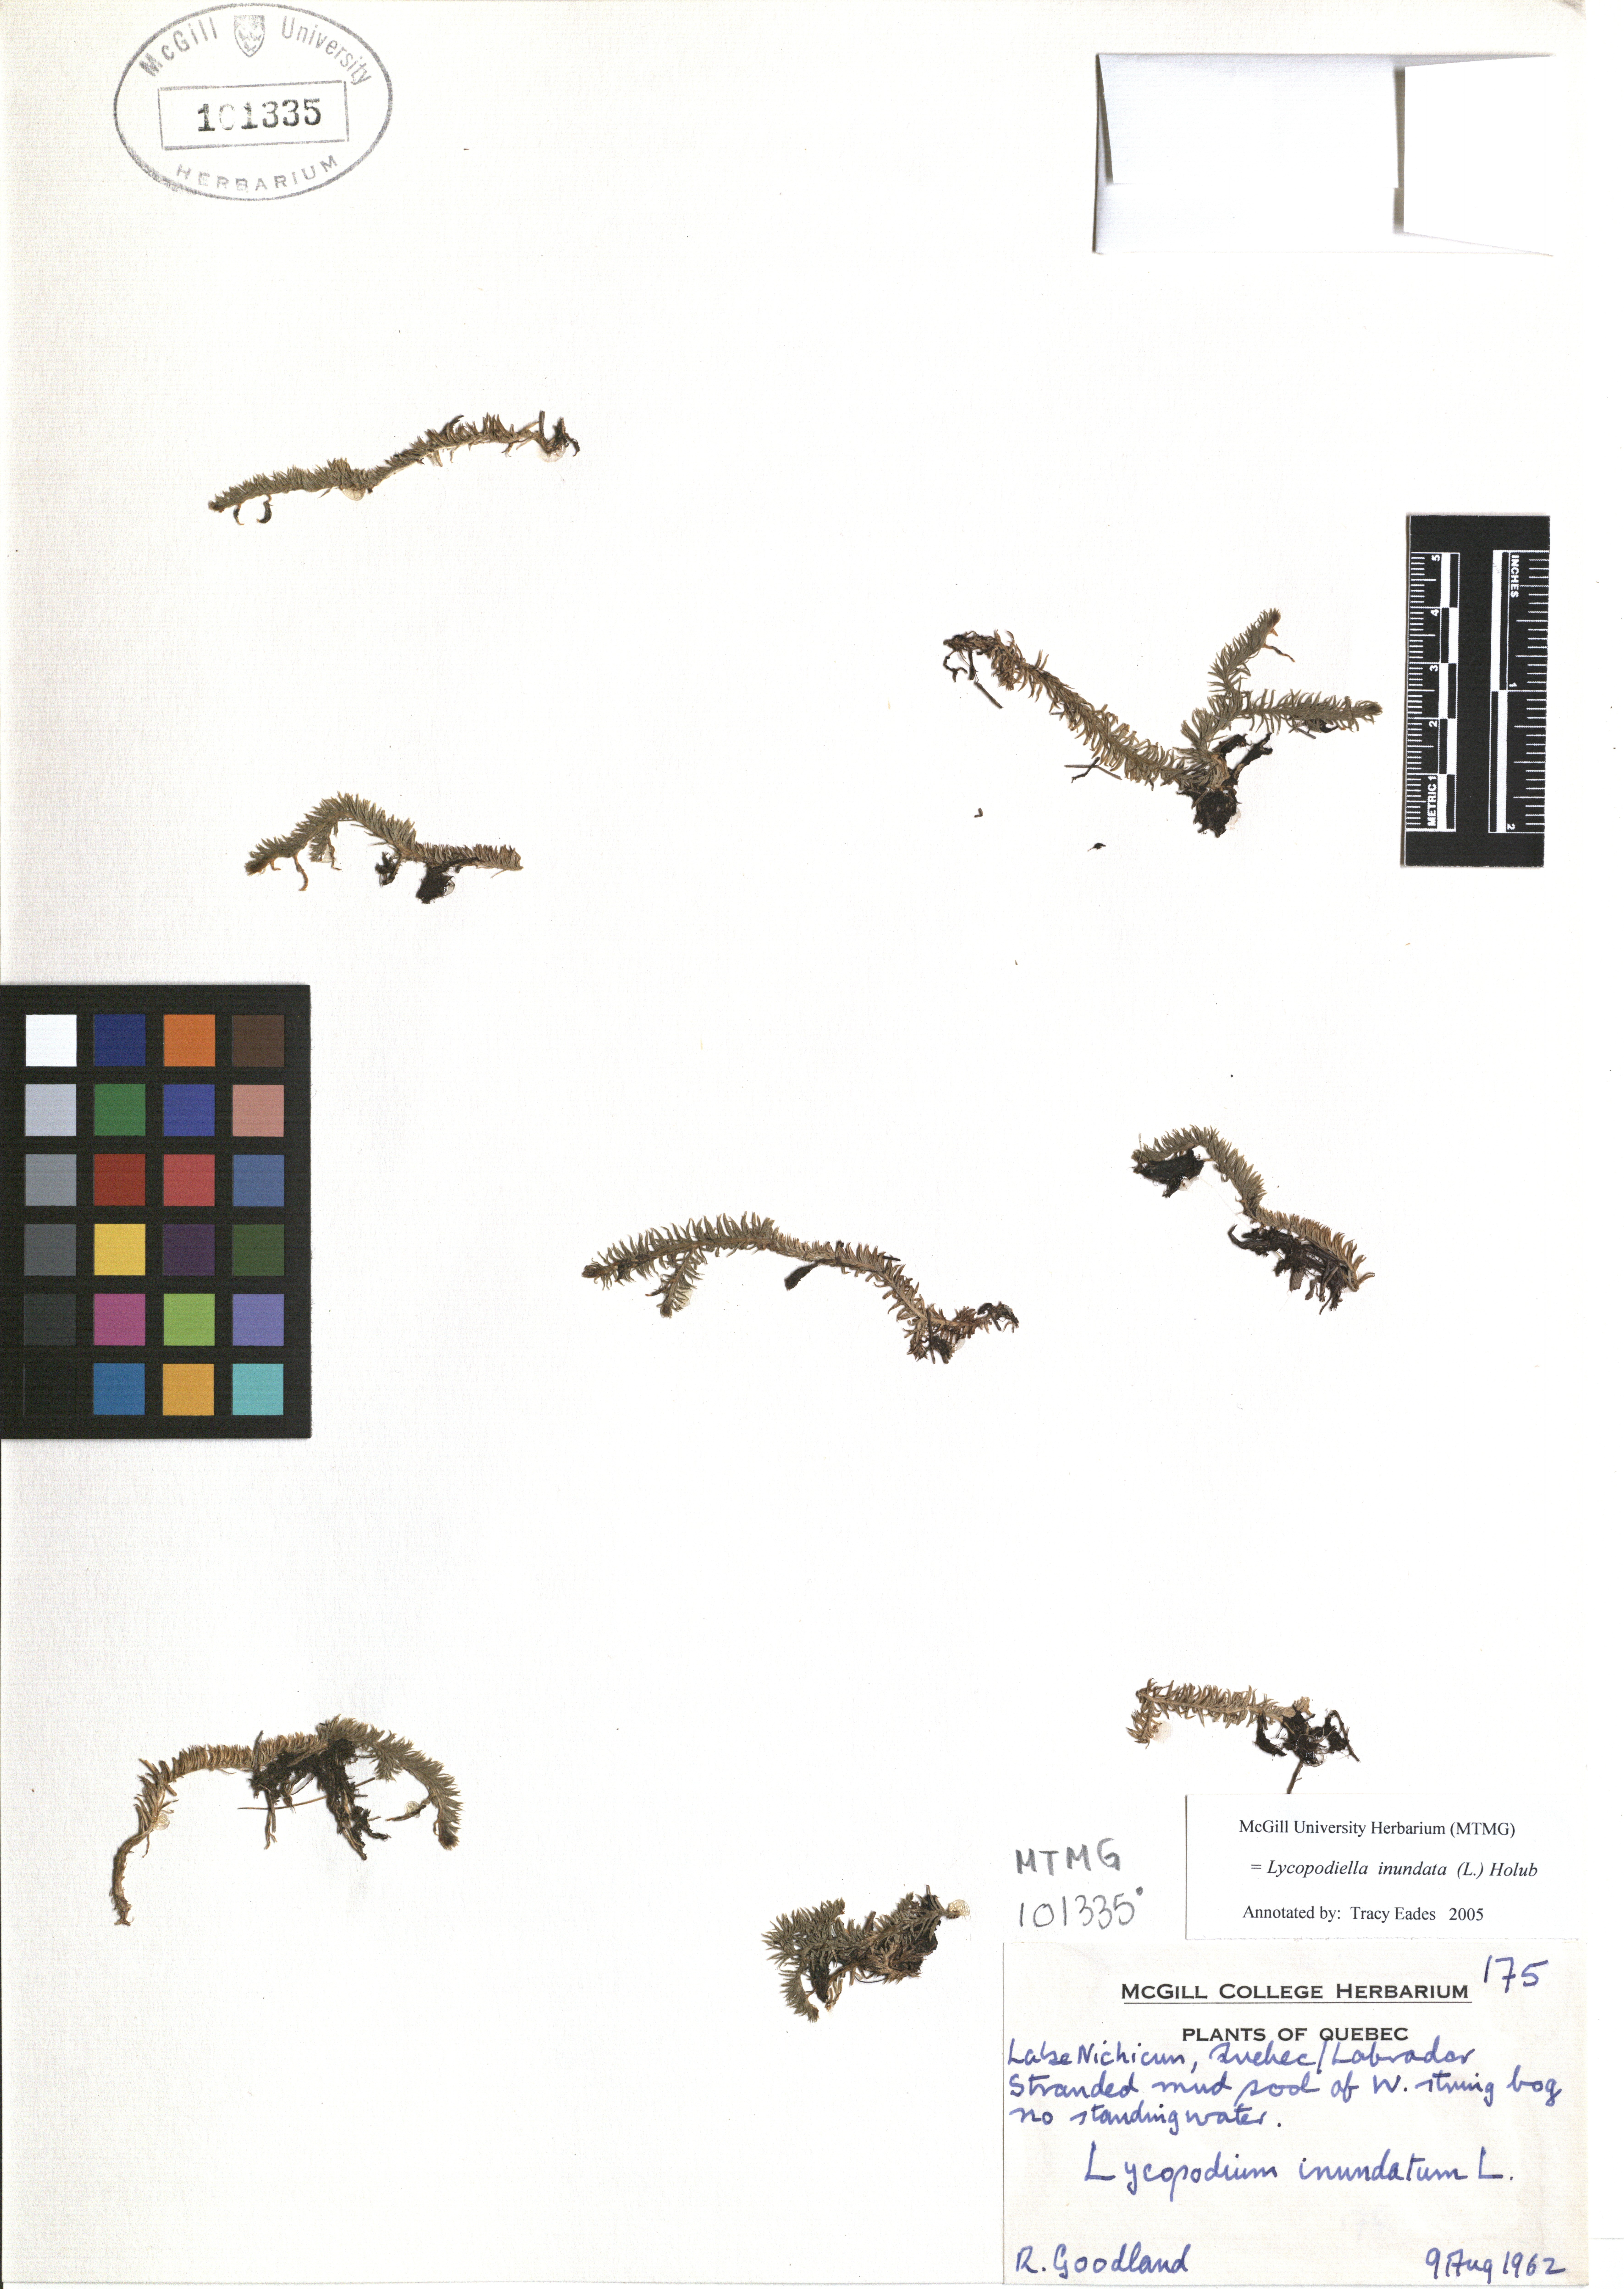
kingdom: Plantae
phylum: Tracheophyta
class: Lycopodiopsida
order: Lycopodiales
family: Lycopodiaceae
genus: Lycopodiella
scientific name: Lycopodiella inundata
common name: Marsh clubmoss
